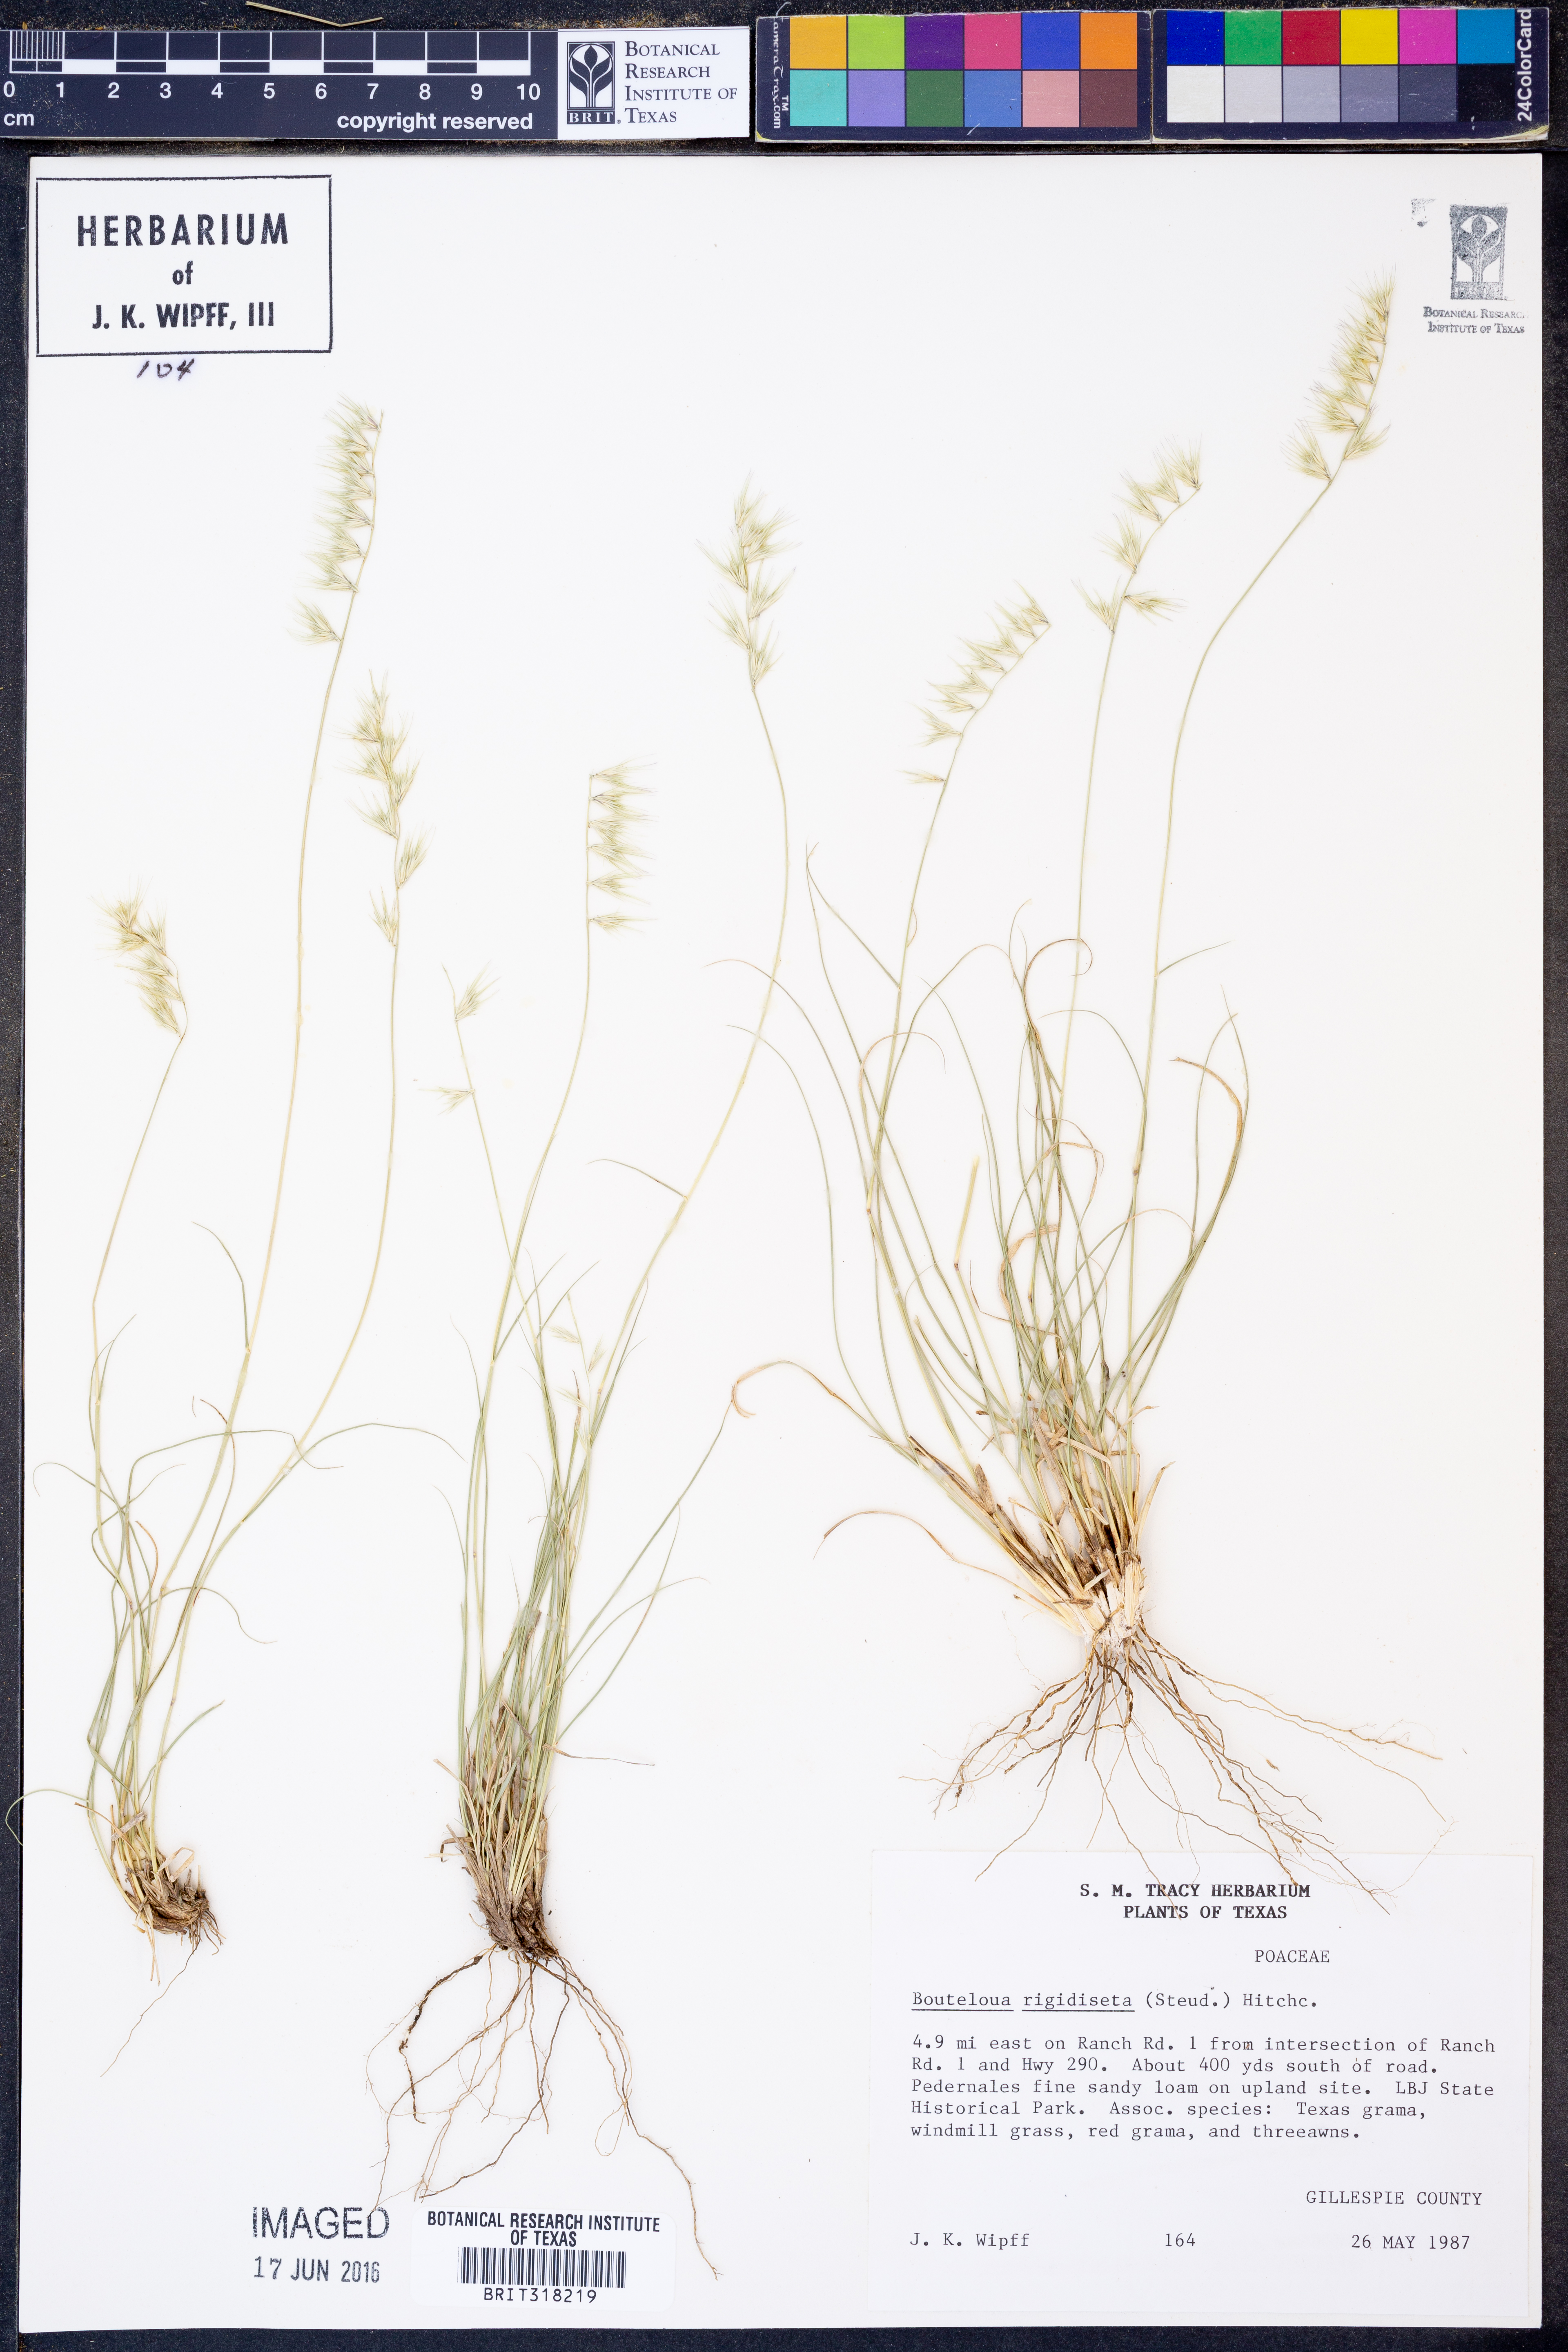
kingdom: Plantae
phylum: Tracheophyta
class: Liliopsida
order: Poales
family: Poaceae
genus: Bouteloua
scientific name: Bouteloua rigidiseta
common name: Texas grama
